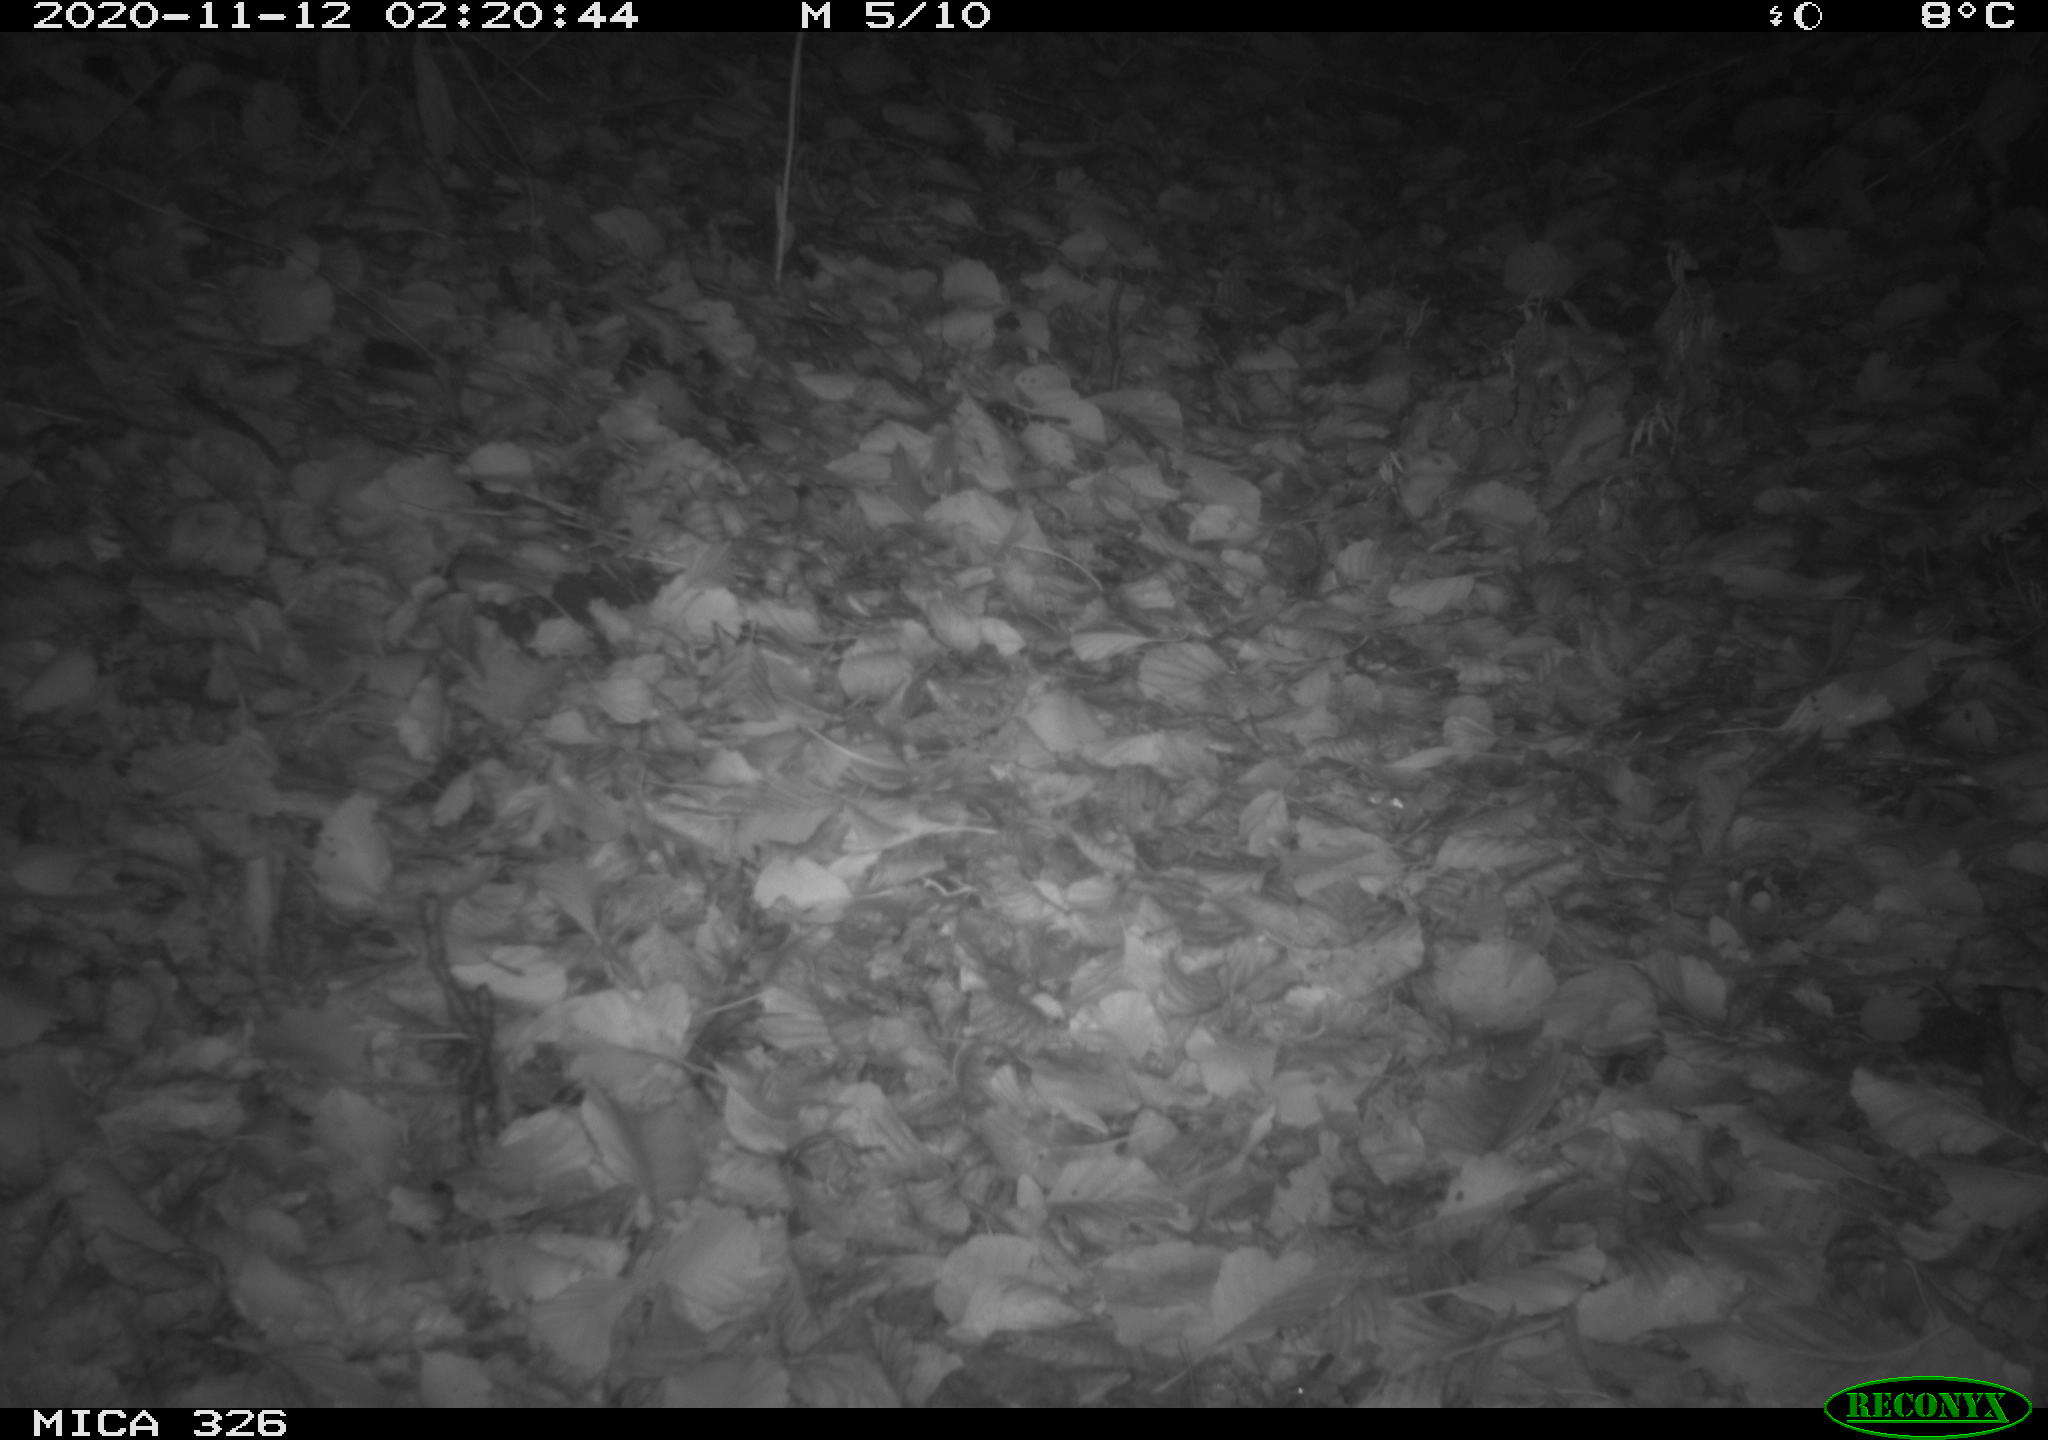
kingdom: Animalia
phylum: Chordata
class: Mammalia
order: Carnivora
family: Mustelidae
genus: Lutra
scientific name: Lutra lutra
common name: European otter
